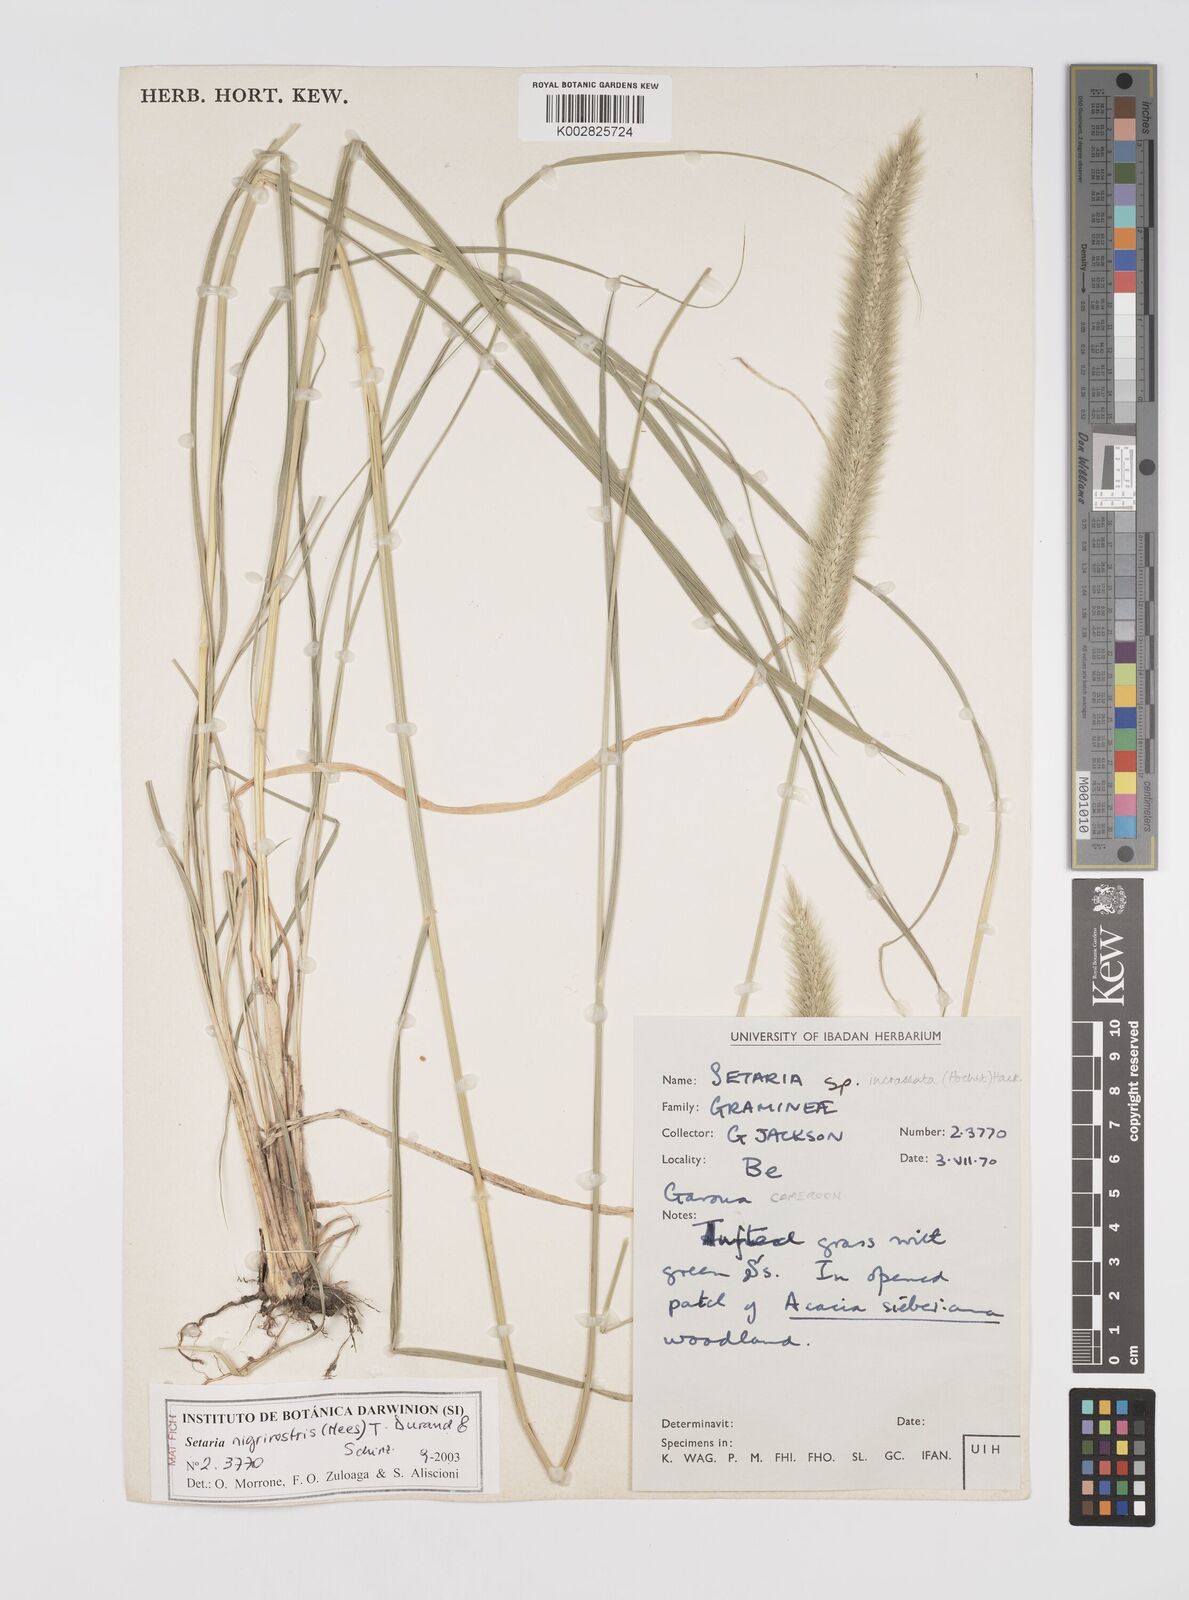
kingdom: Plantae
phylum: Tracheophyta
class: Liliopsida
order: Poales
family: Poaceae
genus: Setaria
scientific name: Setaria nigrirostris
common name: Black bristlegrass
